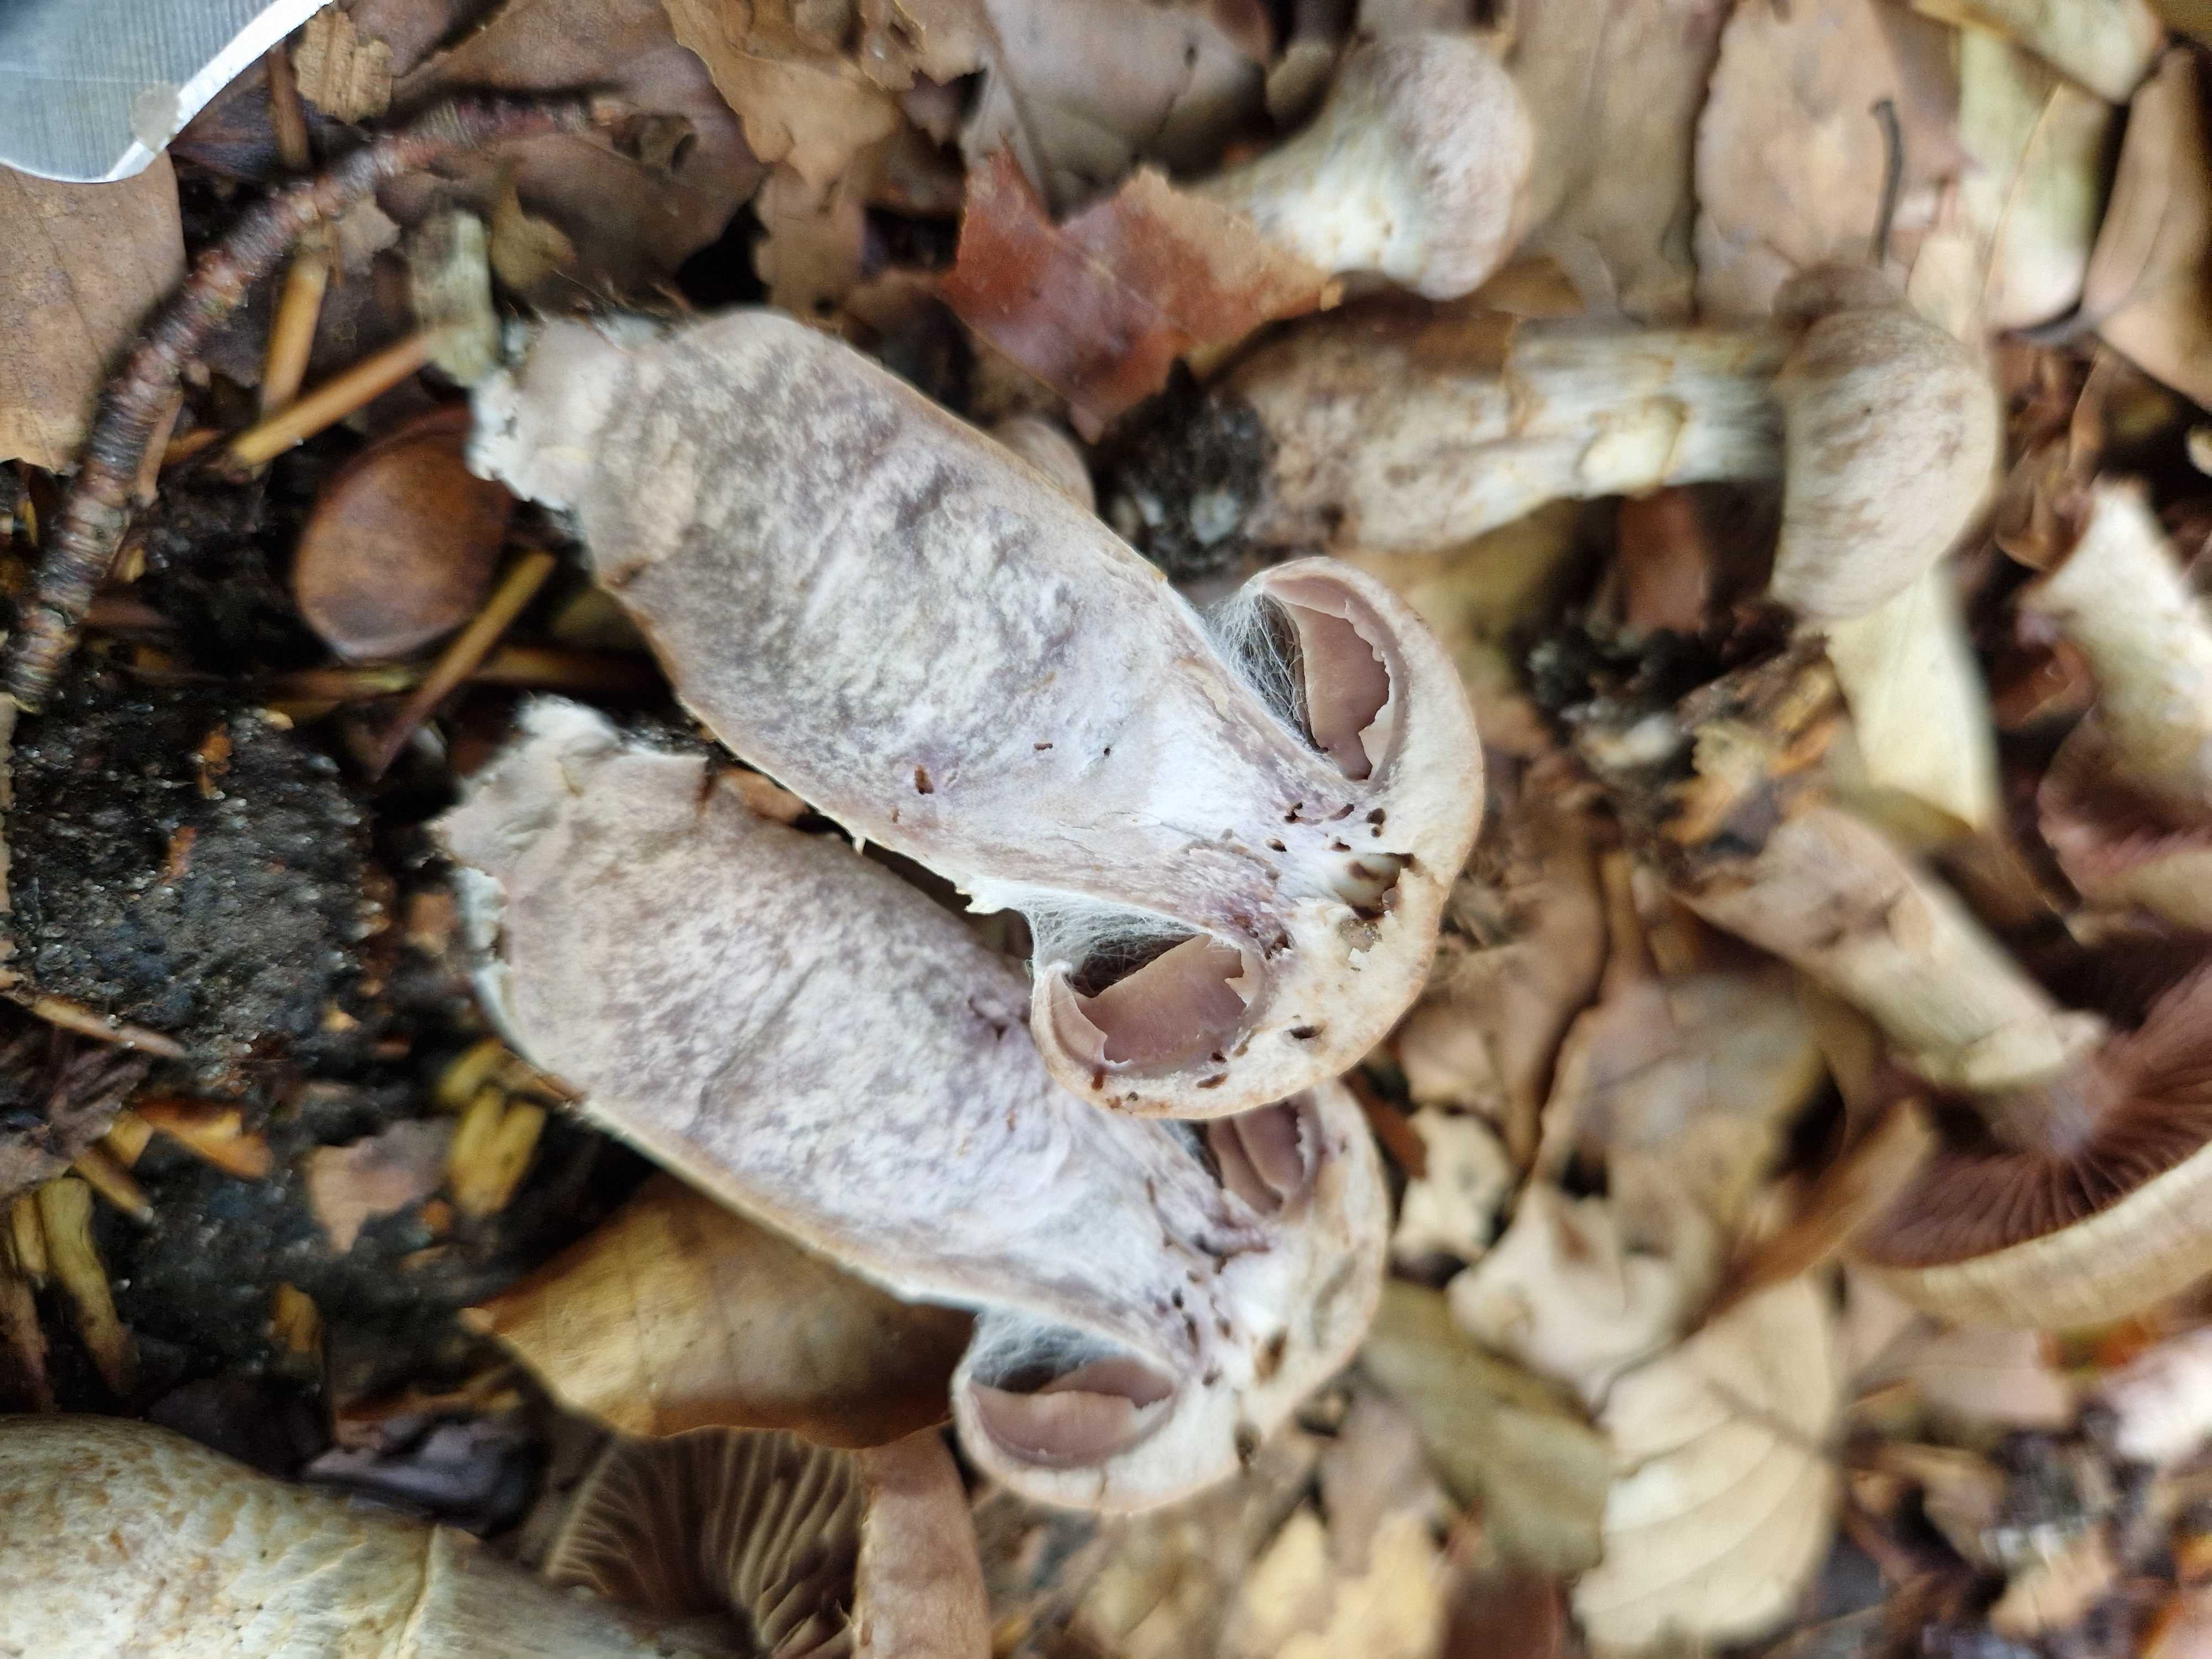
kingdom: Fungi
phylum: Basidiomycota
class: Agaricomycetes
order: Agaricales
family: Cortinariaceae
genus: Cortinarius
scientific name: Cortinarius torvus
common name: champignonagtig slørhat
